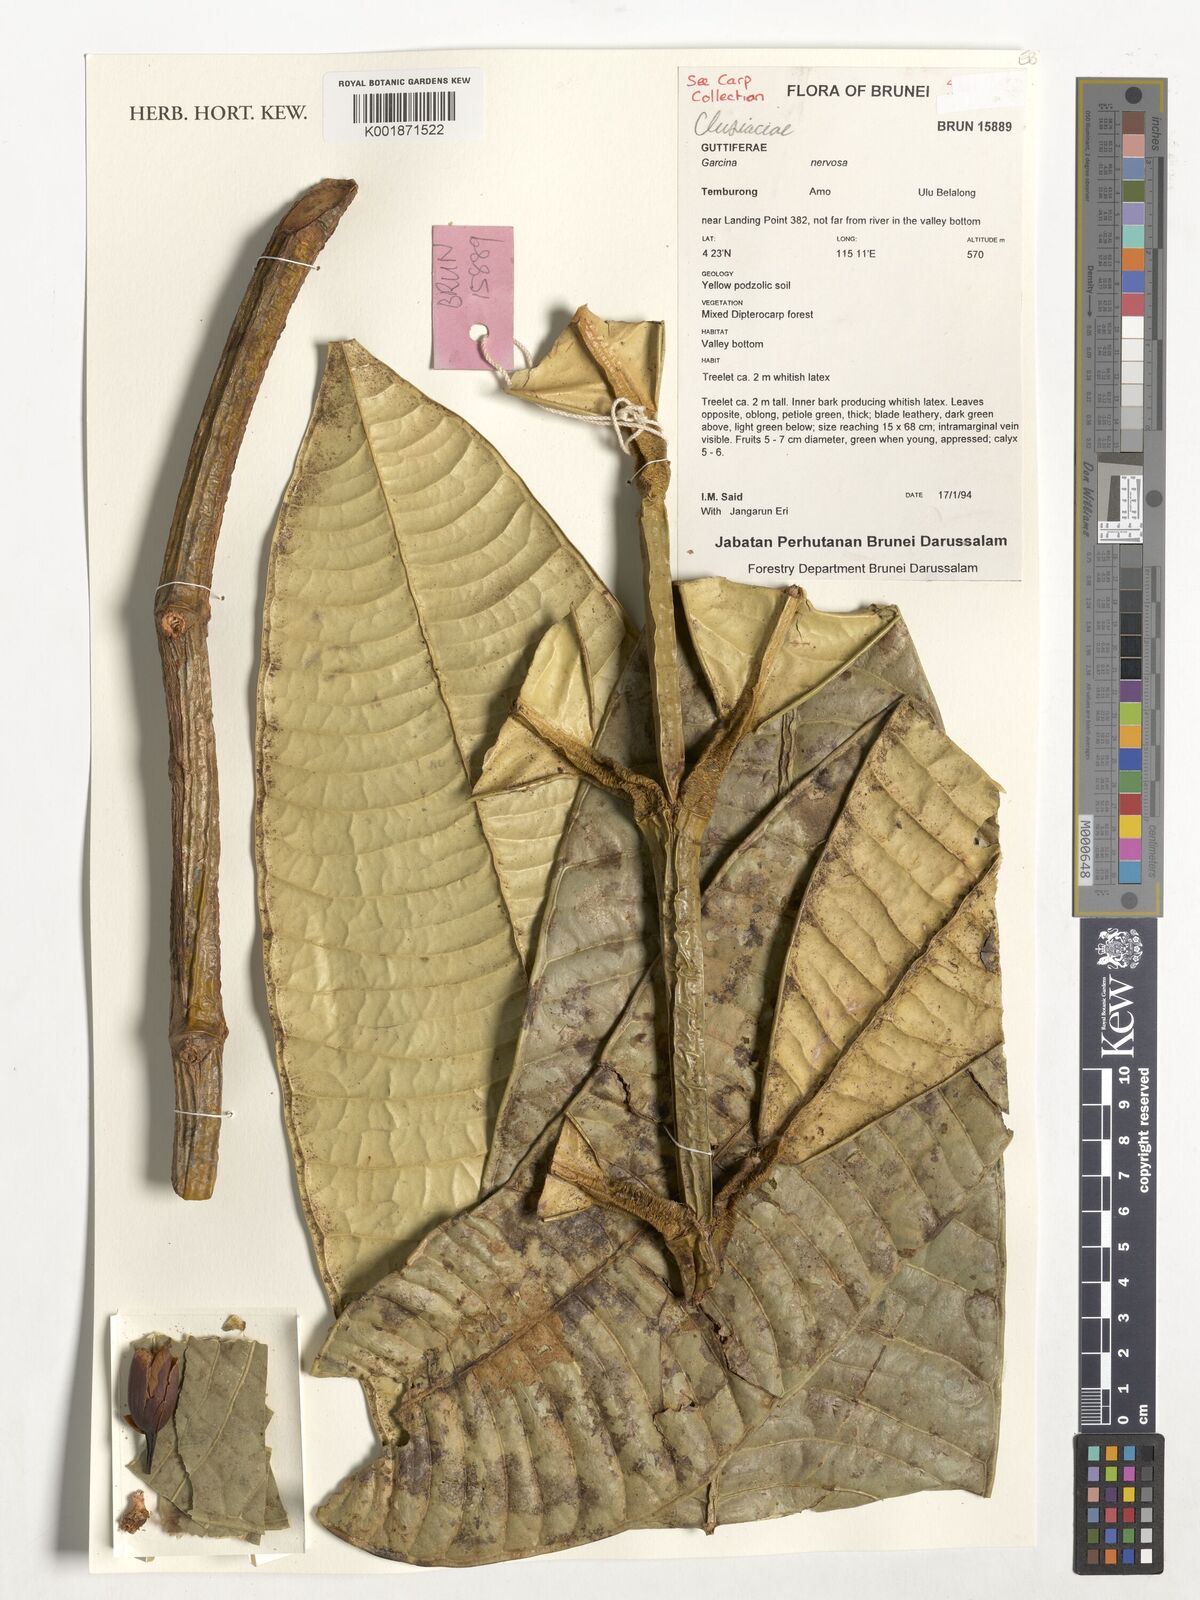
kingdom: Plantae
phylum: Tracheophyta
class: Magnoliopsida
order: Malpighiales
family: Clusiaceae
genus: Garcinia
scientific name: Garcinia nervosa
